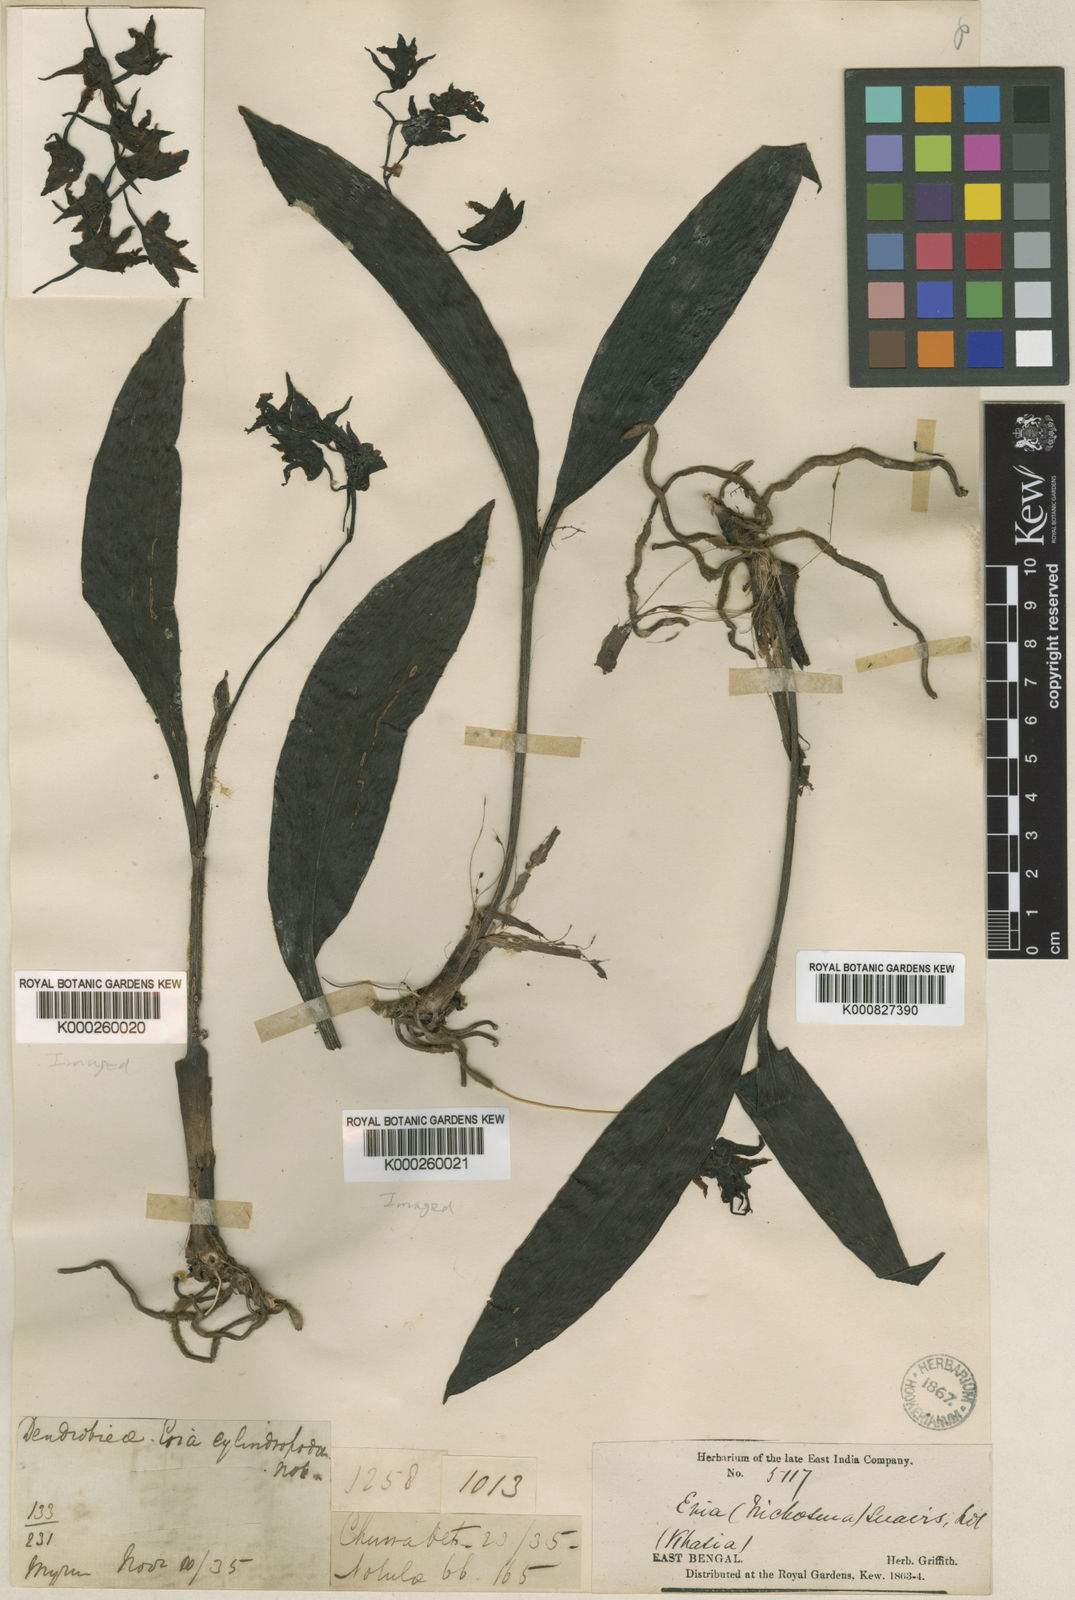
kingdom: Plantae
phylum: Tracheophyta
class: Liliopsida
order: Asparagales
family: Orchidaceae
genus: Eria
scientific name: Eria
